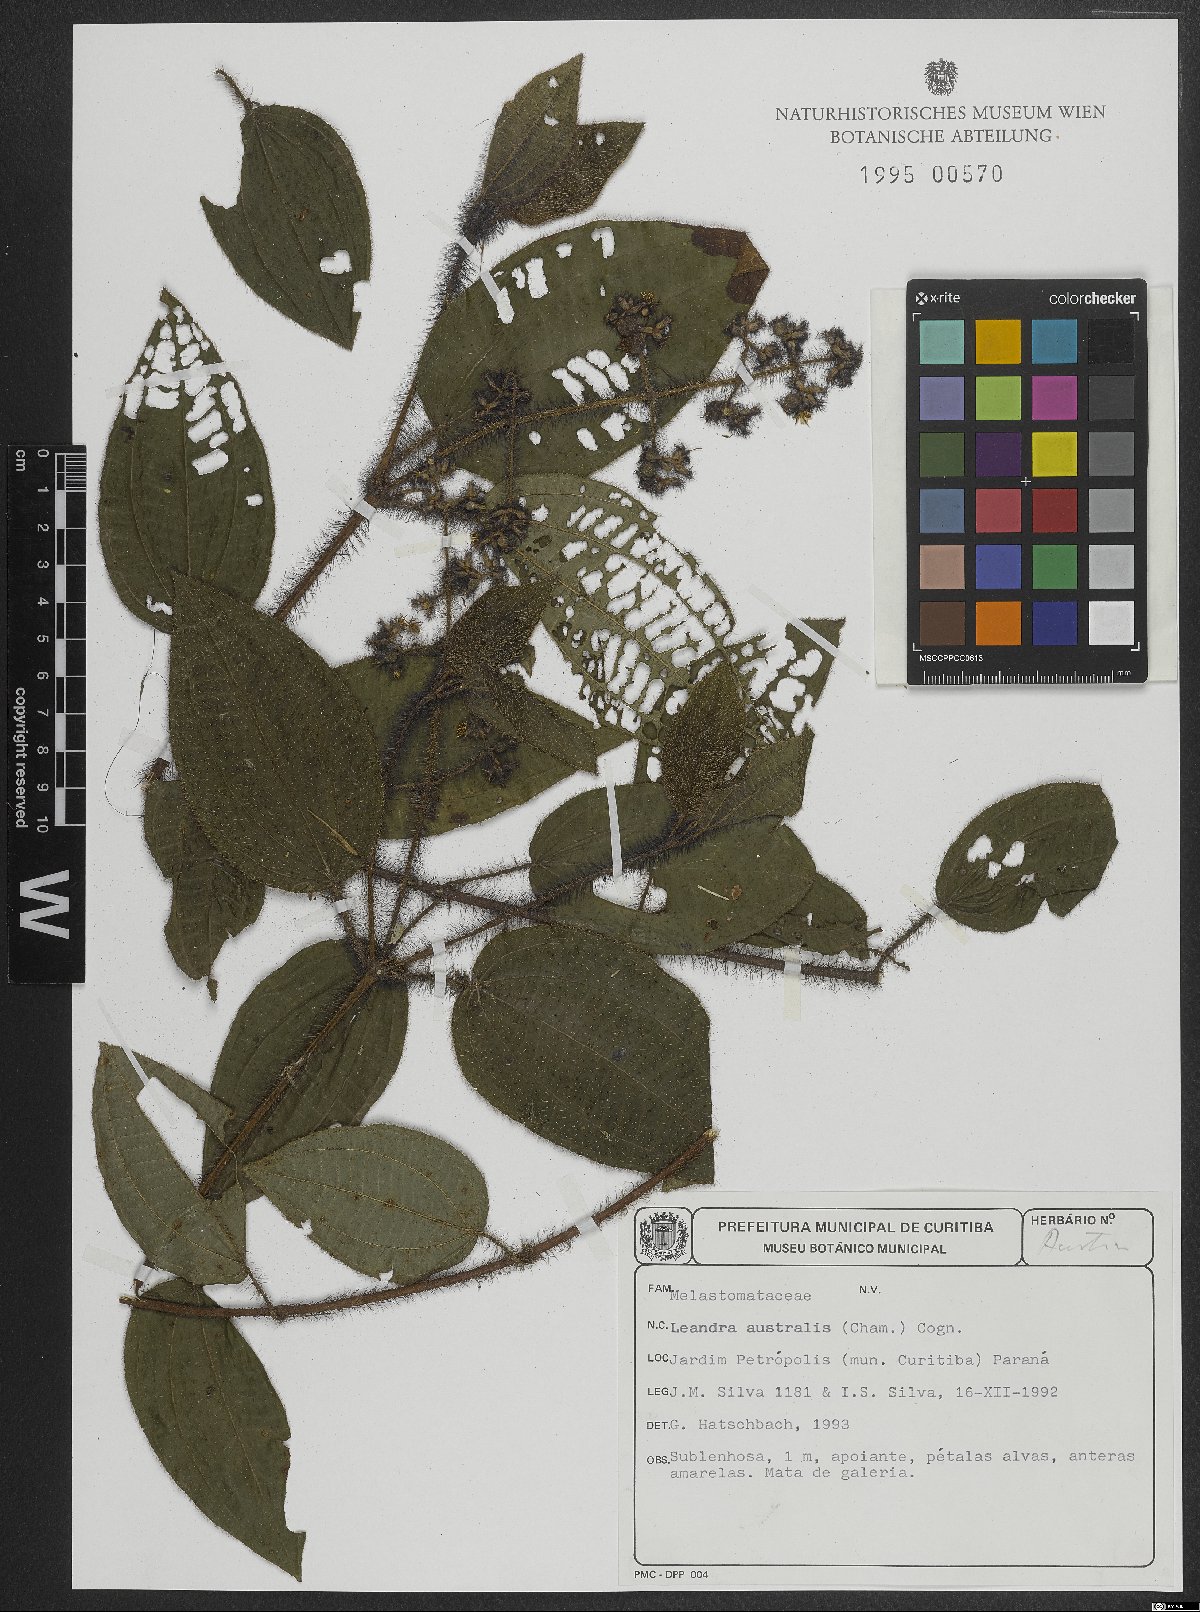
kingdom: Plantae
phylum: Tracheophyta
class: Magnoliopsida
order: Myrtales
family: Melastomataceae
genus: Miconia
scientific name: Miconia australis
